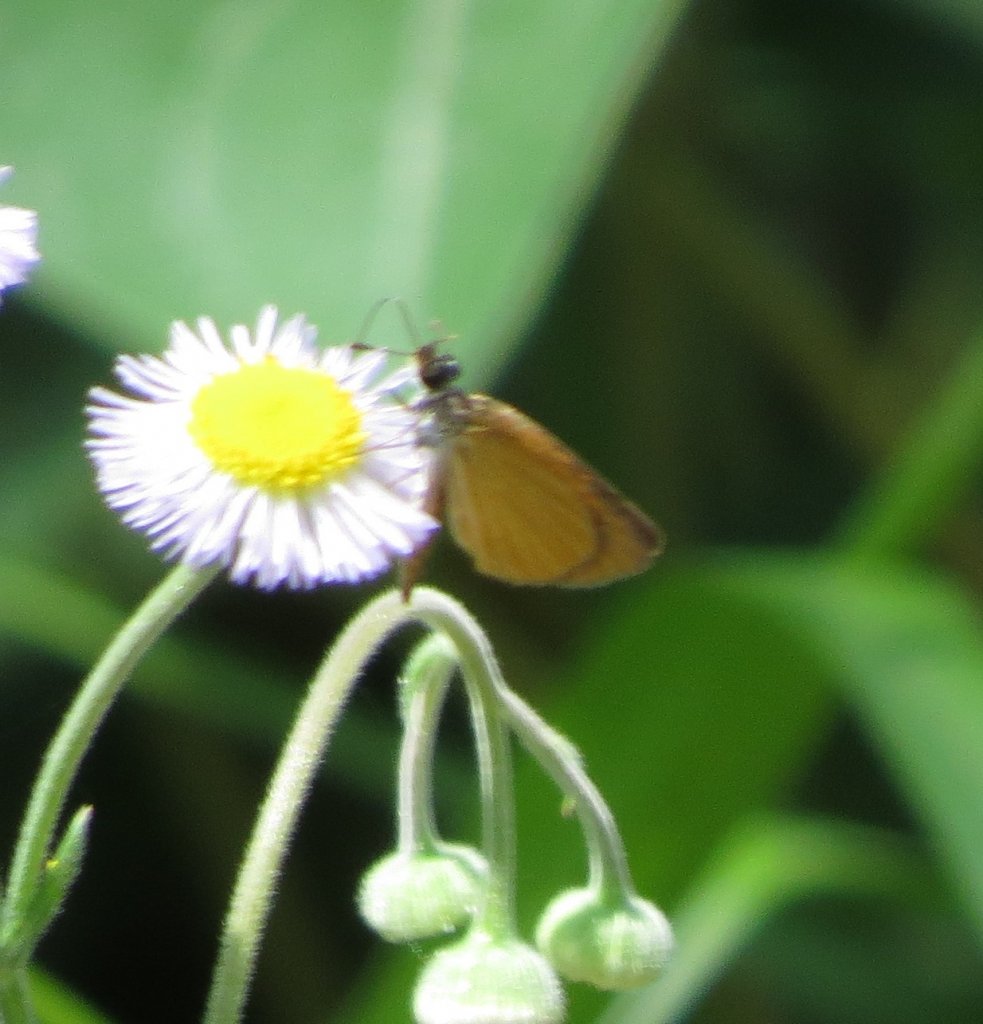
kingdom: Animalia
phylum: Arthropoda
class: Insecta
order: Lepidoptera
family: Hesperiidae
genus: Ancyloxypha
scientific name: Ancyloxypha numitor
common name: Least Skipper
